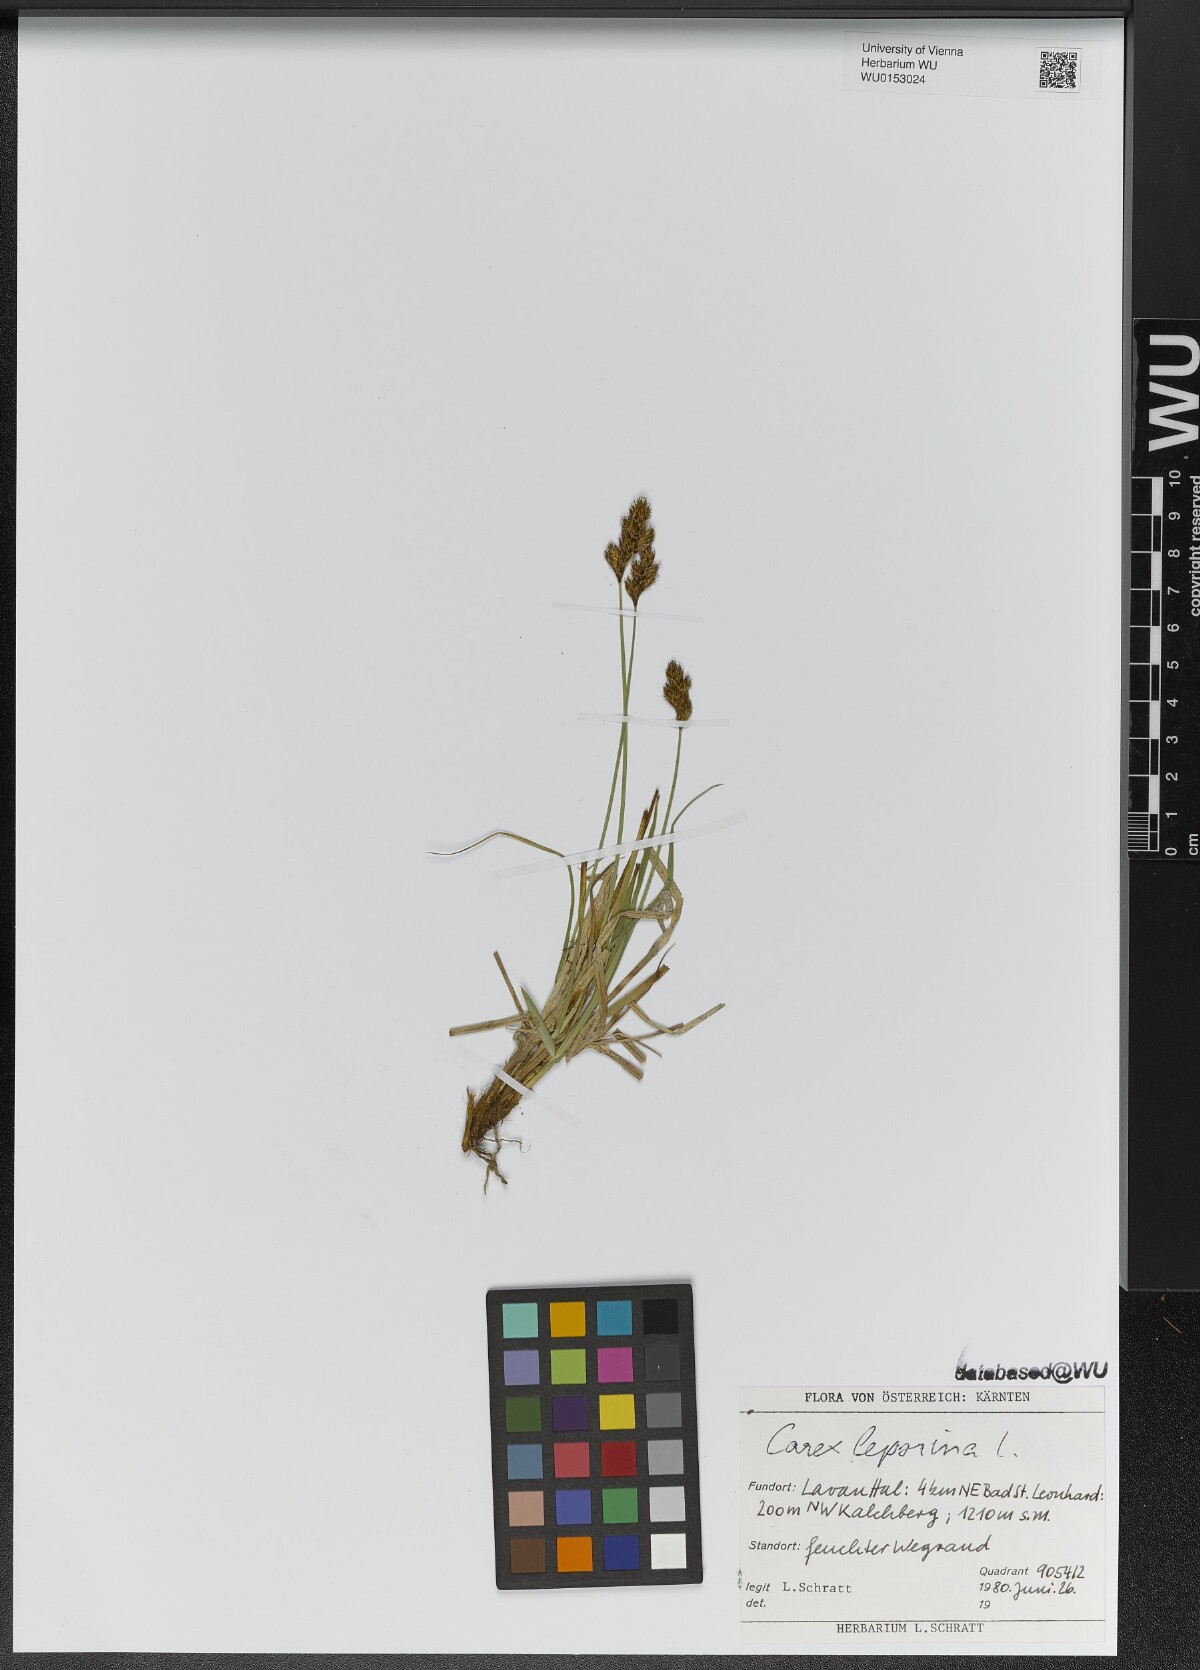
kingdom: Plantae
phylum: Tracheophyta
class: Liliopsida
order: Poales
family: Cyperaceae
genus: Carex
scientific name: Carex leporina
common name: Oval sedge
